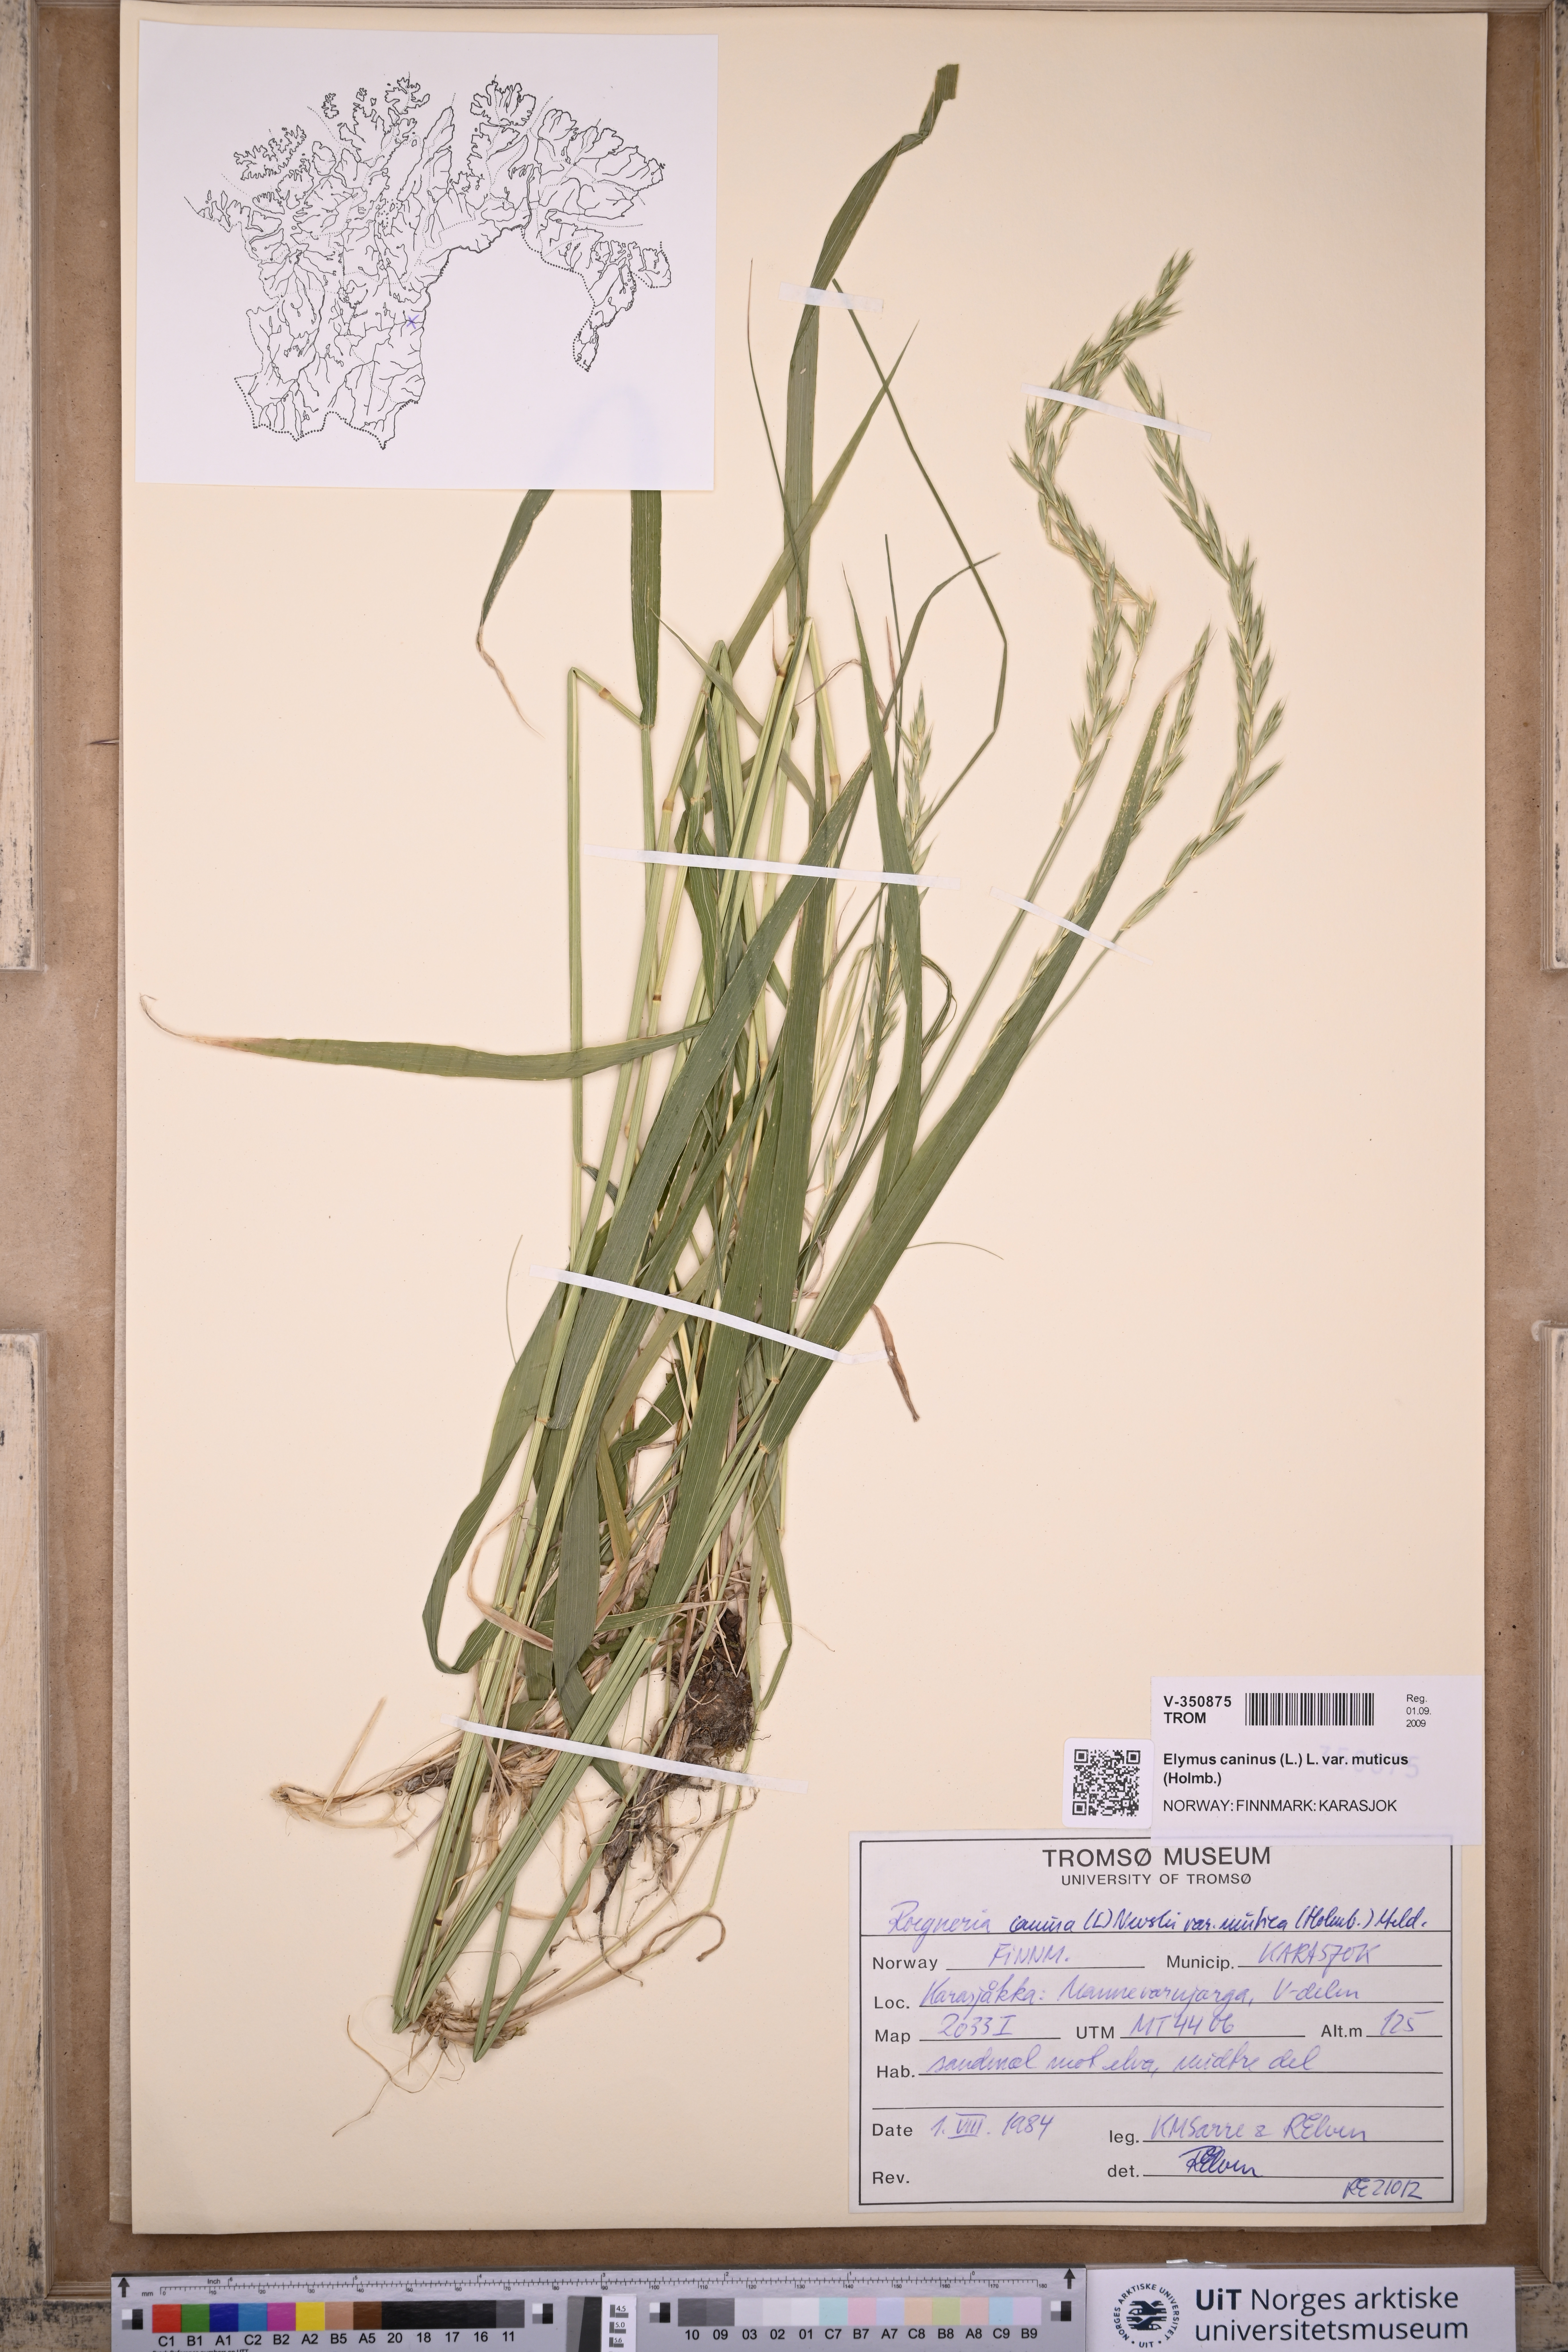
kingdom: Plantae
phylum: Tracheophyta
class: Liliopsida
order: Poales
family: Poaceae
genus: Elymus
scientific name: Elymus caninus
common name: Bearded couch
